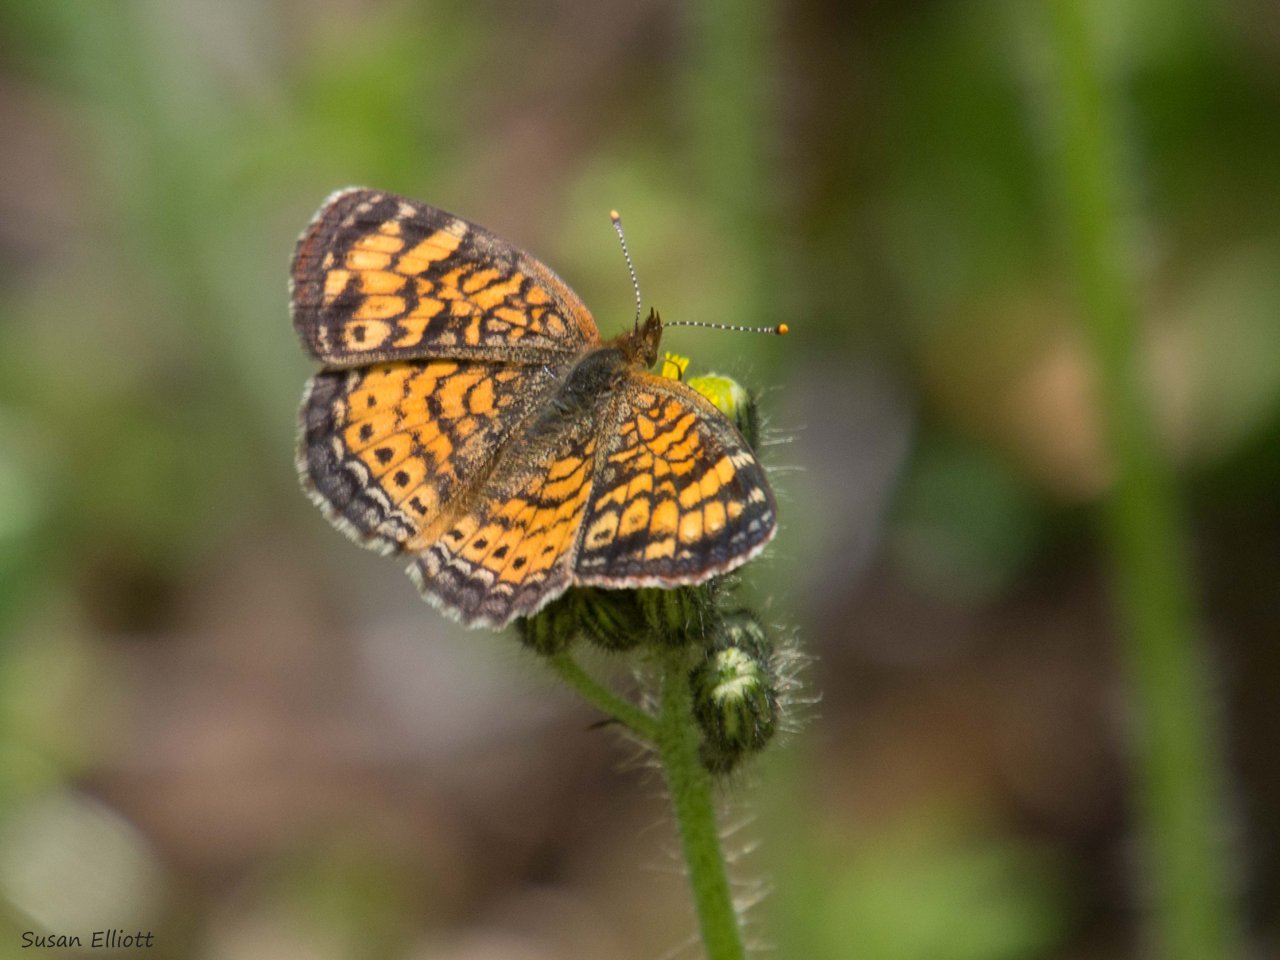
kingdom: Animalia
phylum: Arthropoda
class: Insecta
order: Lepidoptera
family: Nymphalidae
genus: Phyciodes
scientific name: Phyciodes
